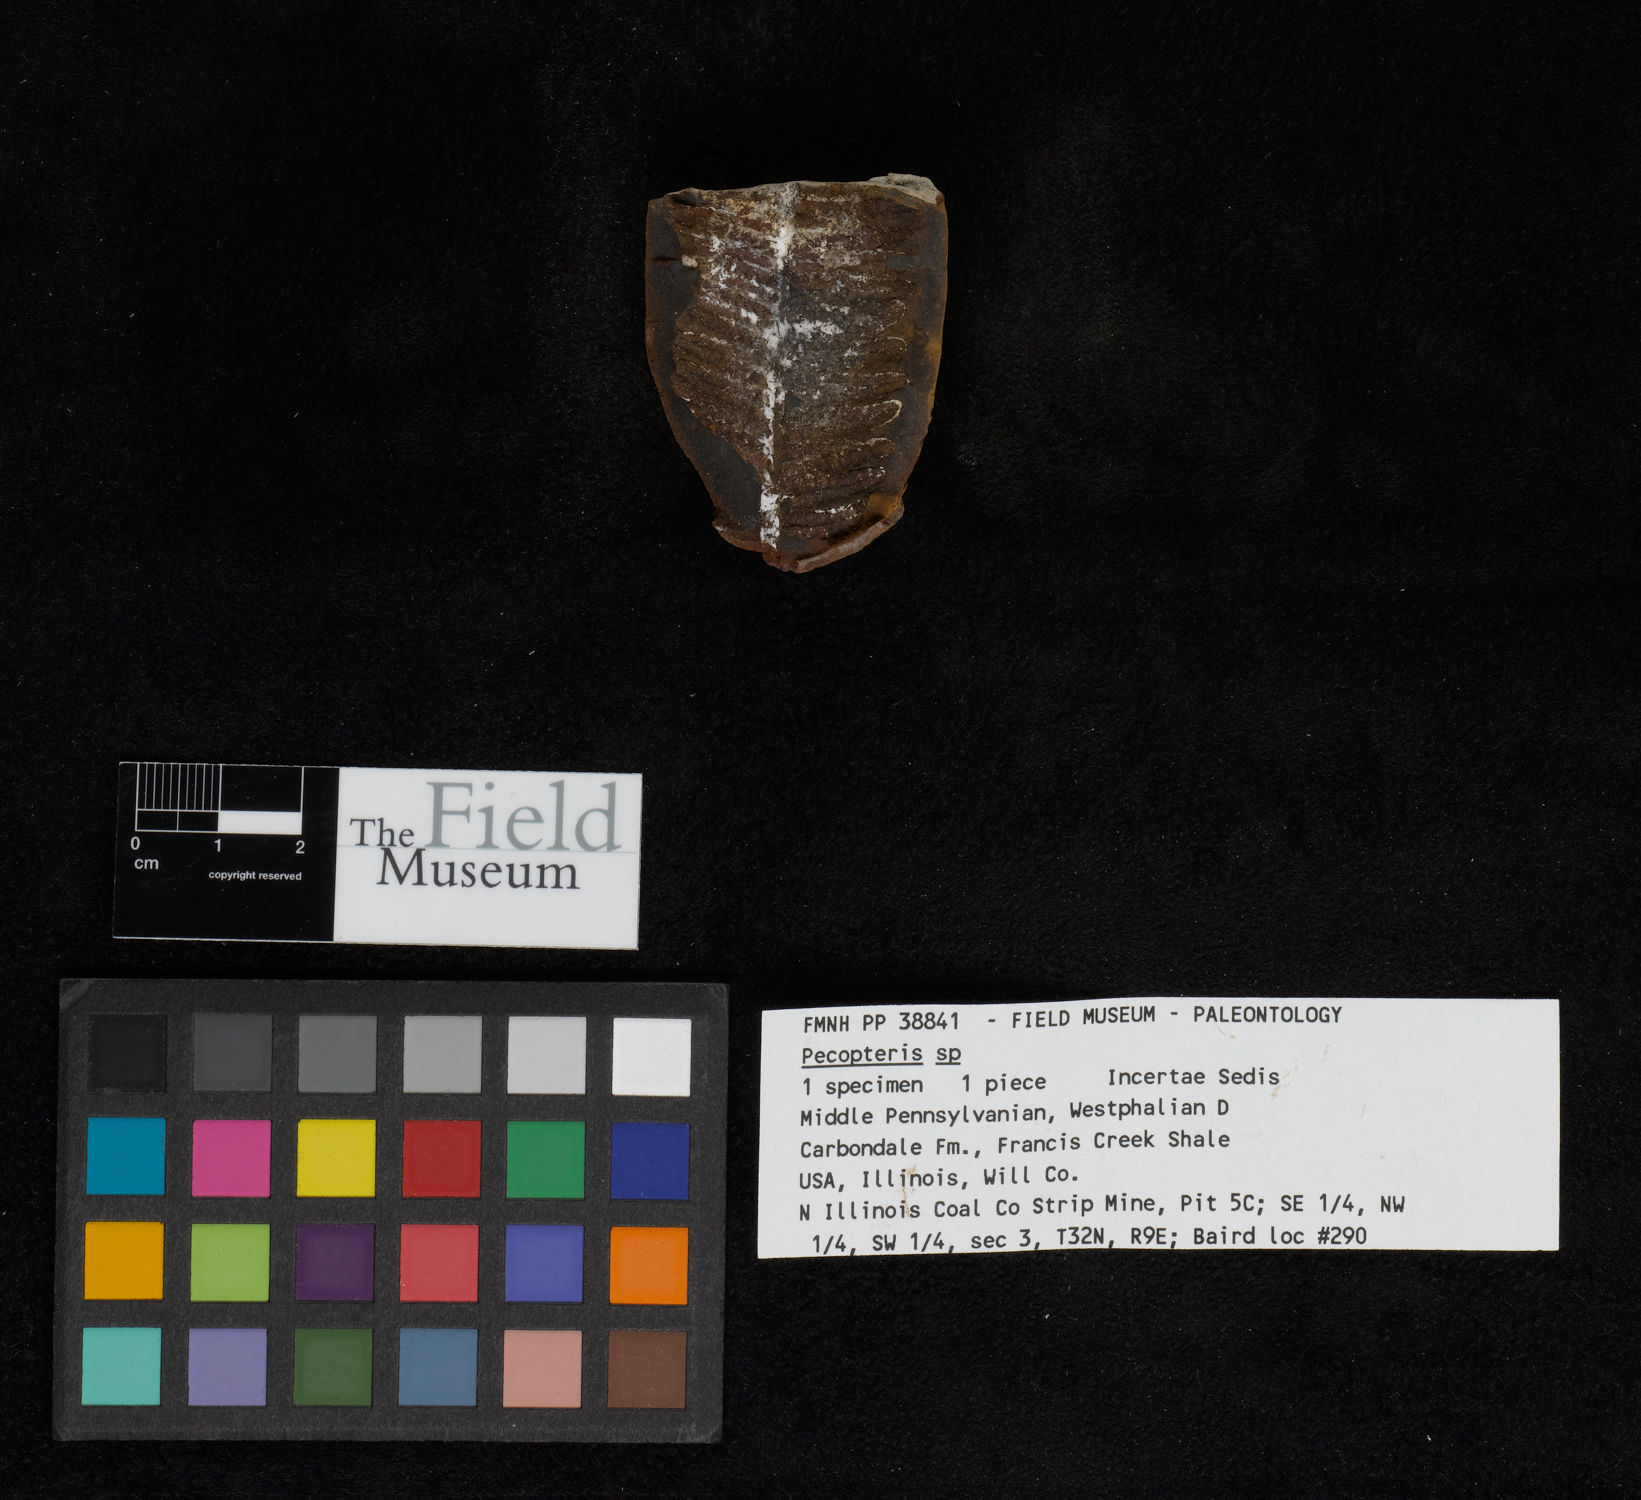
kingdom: Plantae
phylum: Tracheophyta
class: Polypodiopsida
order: Marattiales
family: Asterothecaceae
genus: Pecopteris
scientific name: Pecopteris
